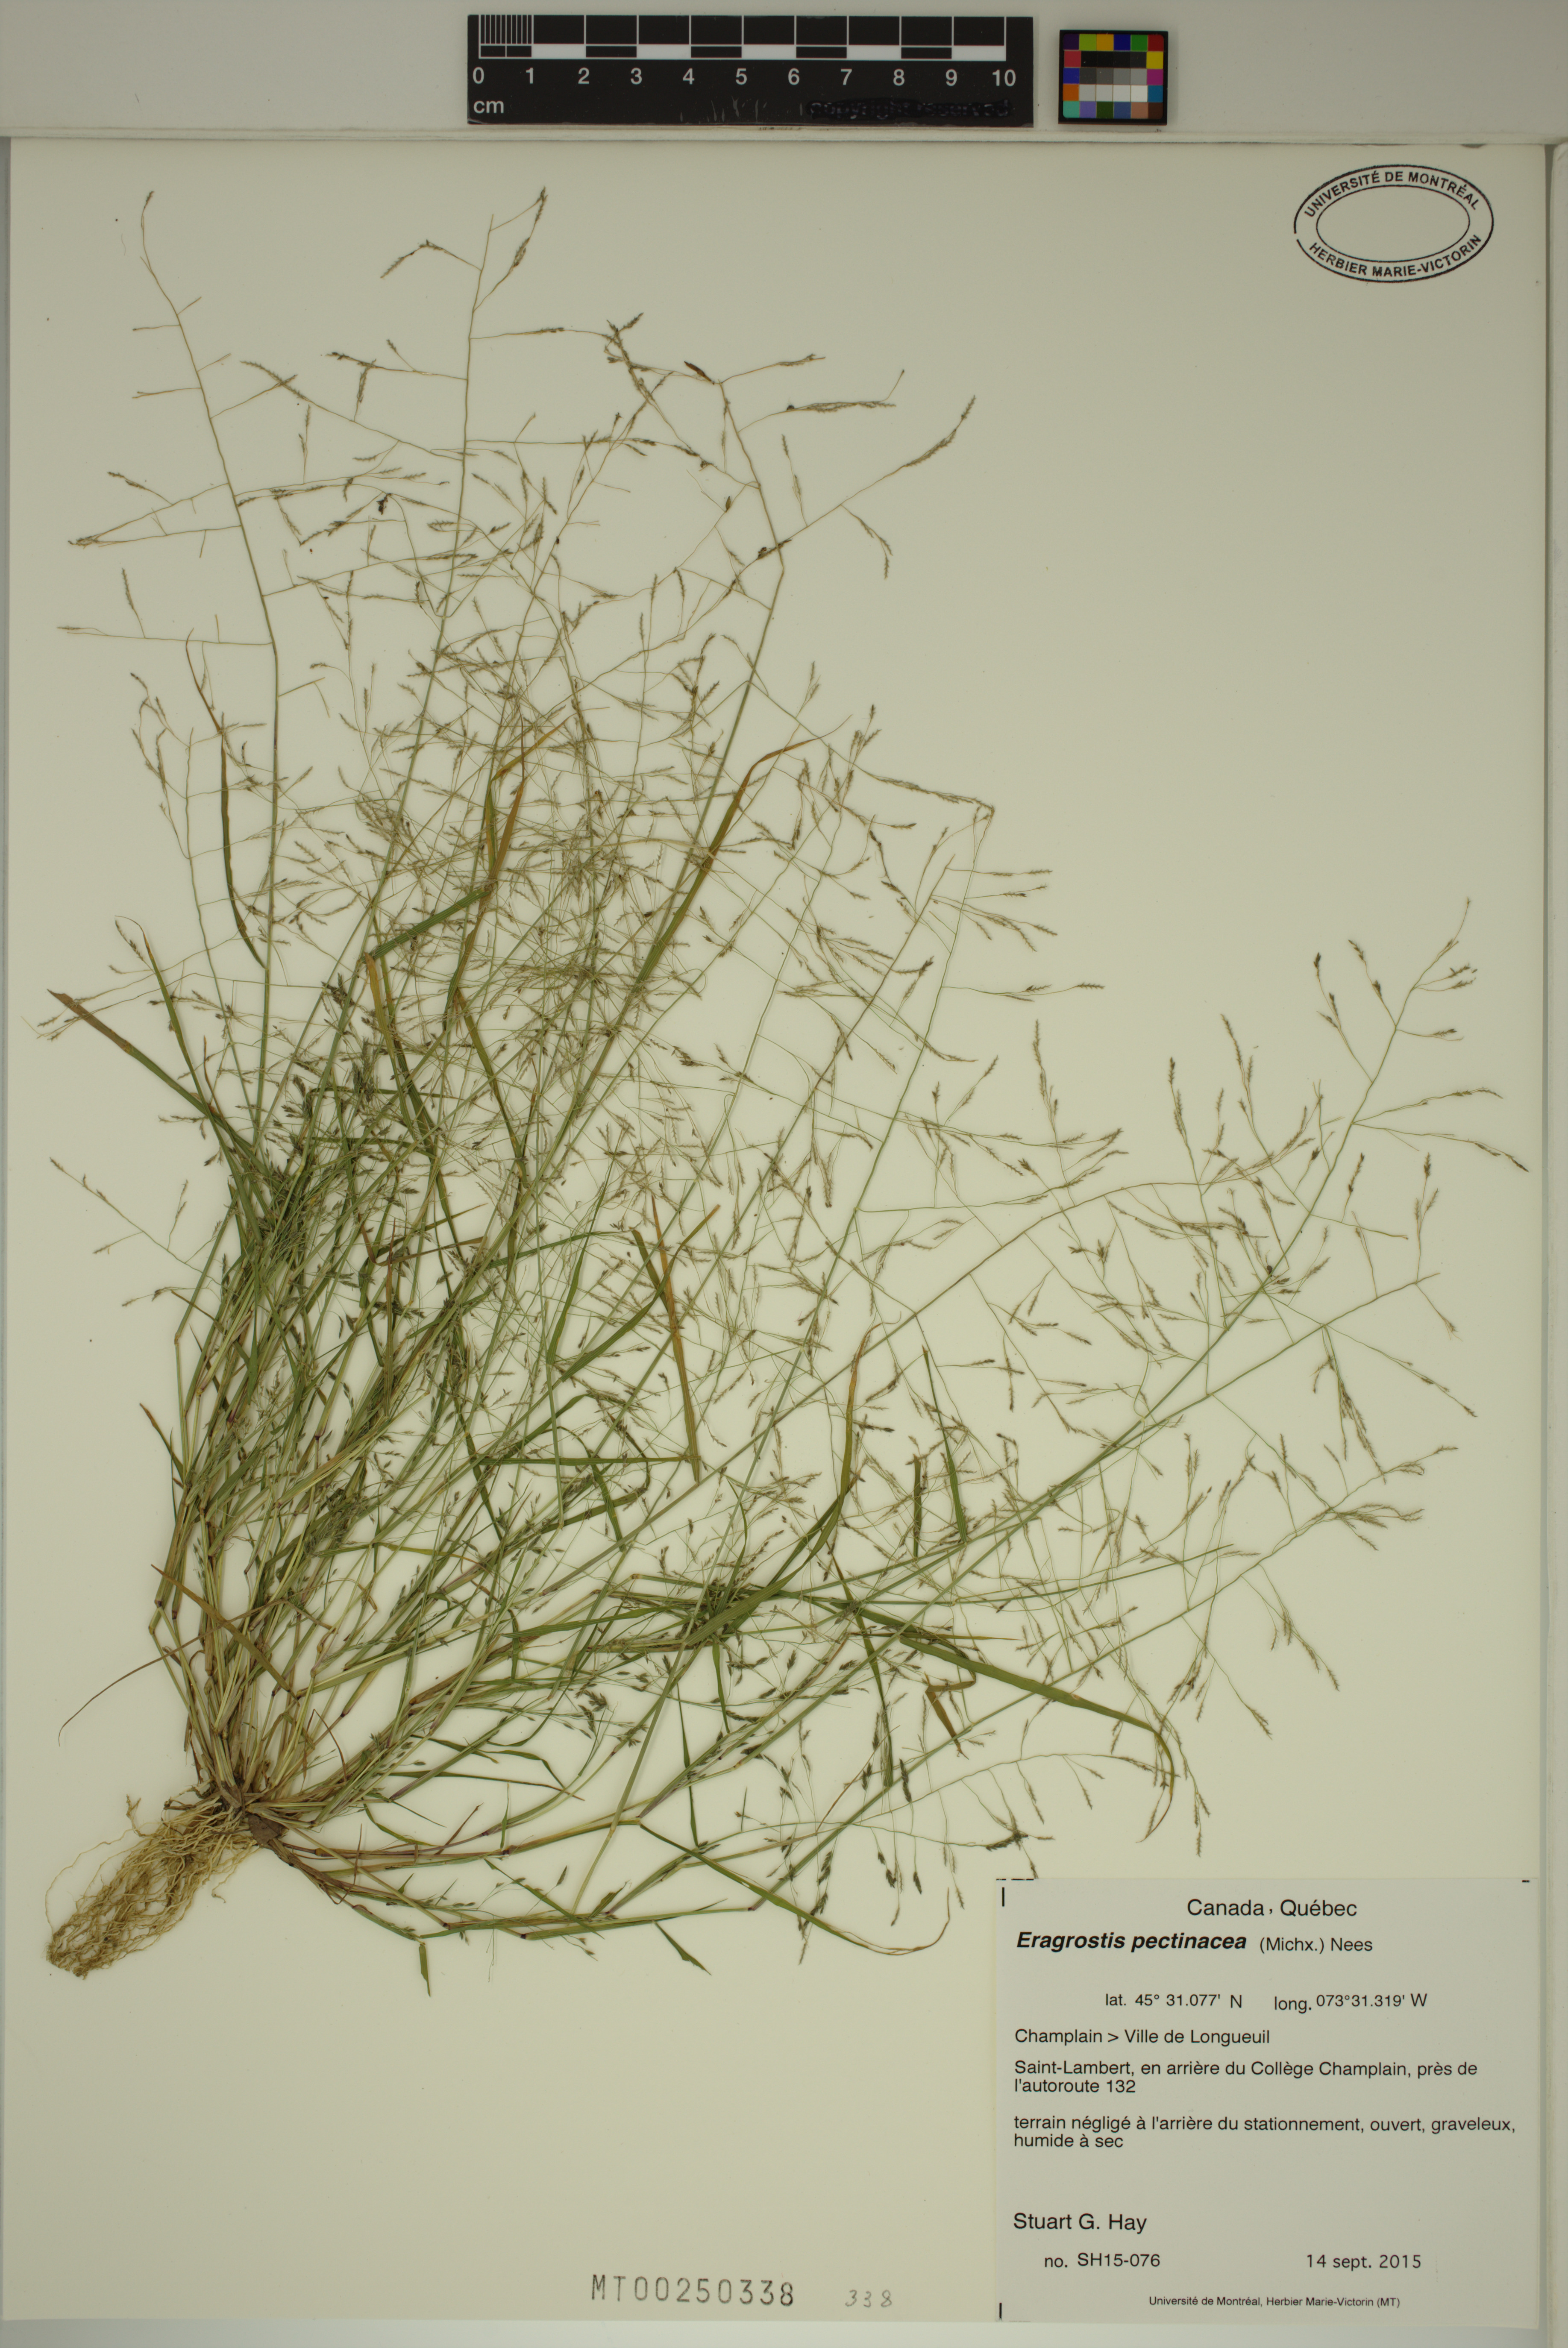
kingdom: Plantae
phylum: Tracheophyta
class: Liliopsida
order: Poales
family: Poaceae
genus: Eragrostis
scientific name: Eragrostis pectinacea
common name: Tufted lovegrass
